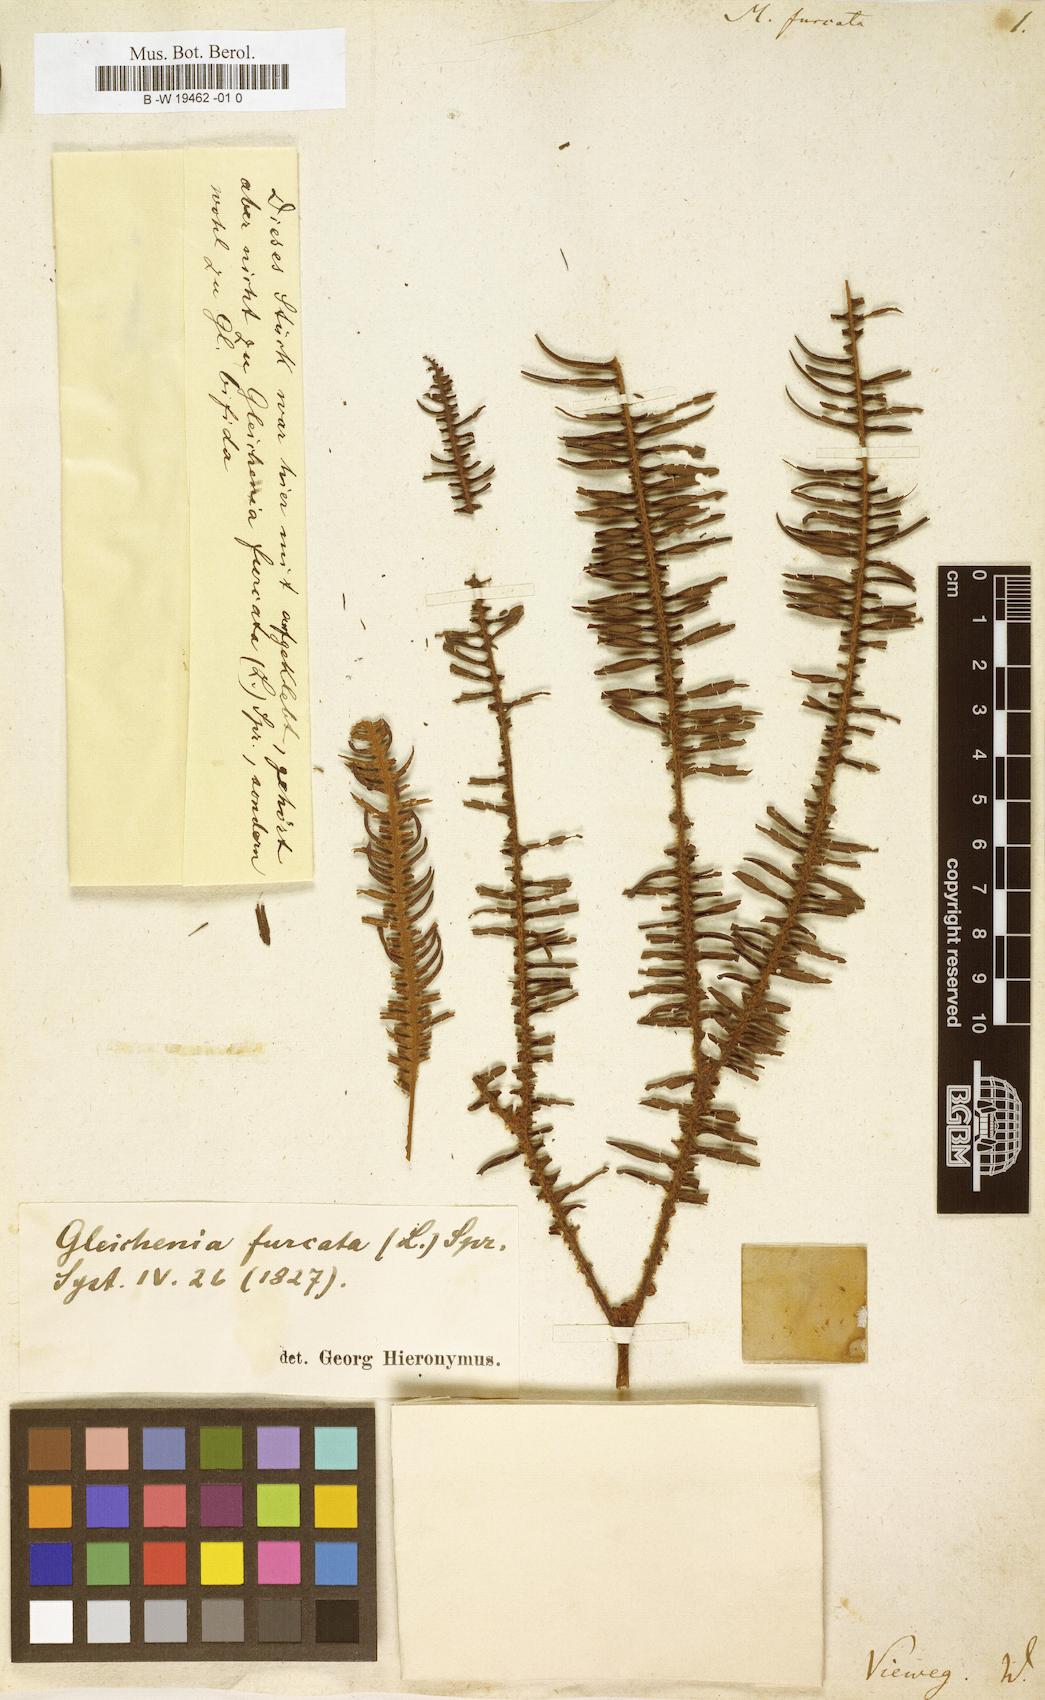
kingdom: Plantae
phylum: Tracheophyta
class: Polypodiopsida
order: Gleicheniales
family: Gleicheniaceae
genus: Sticherus
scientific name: Sticherus furcatus
